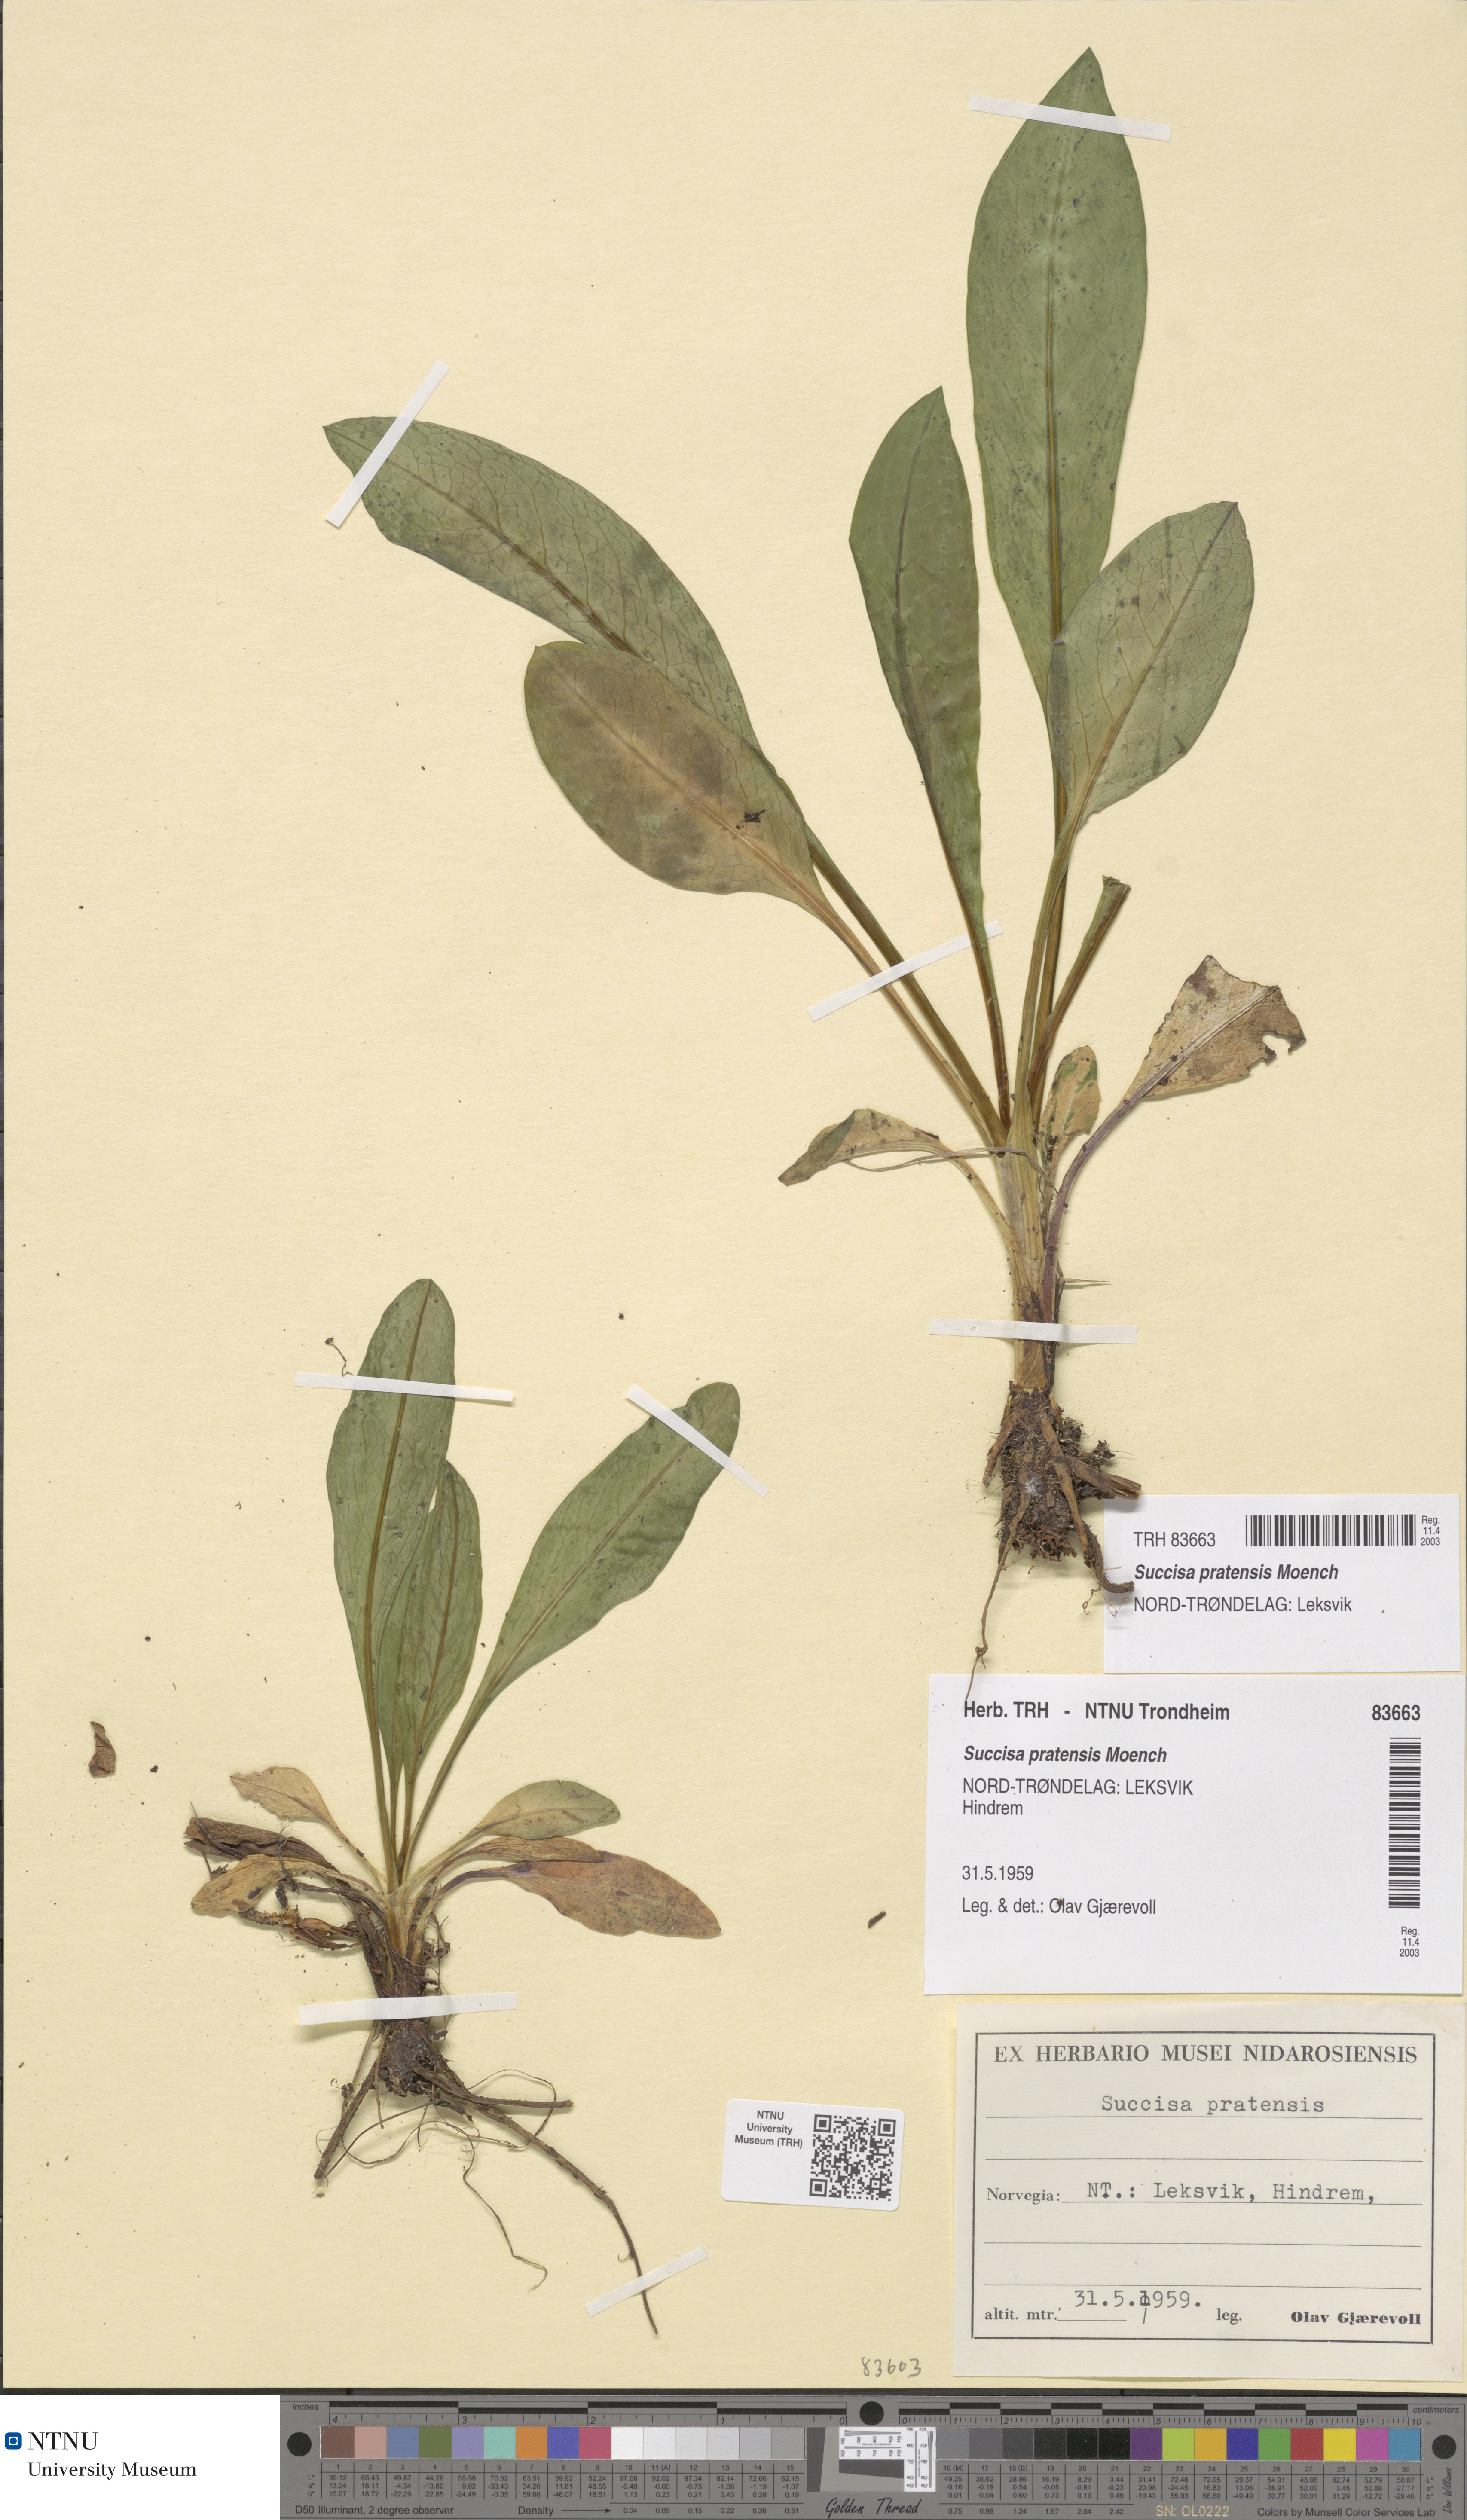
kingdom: Plantae
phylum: Tracheophyta
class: Magnoliopsida
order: Dipsacales
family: Caprifoliaceae
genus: Succisa
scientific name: Succisa pratensis
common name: Devil's-bit
